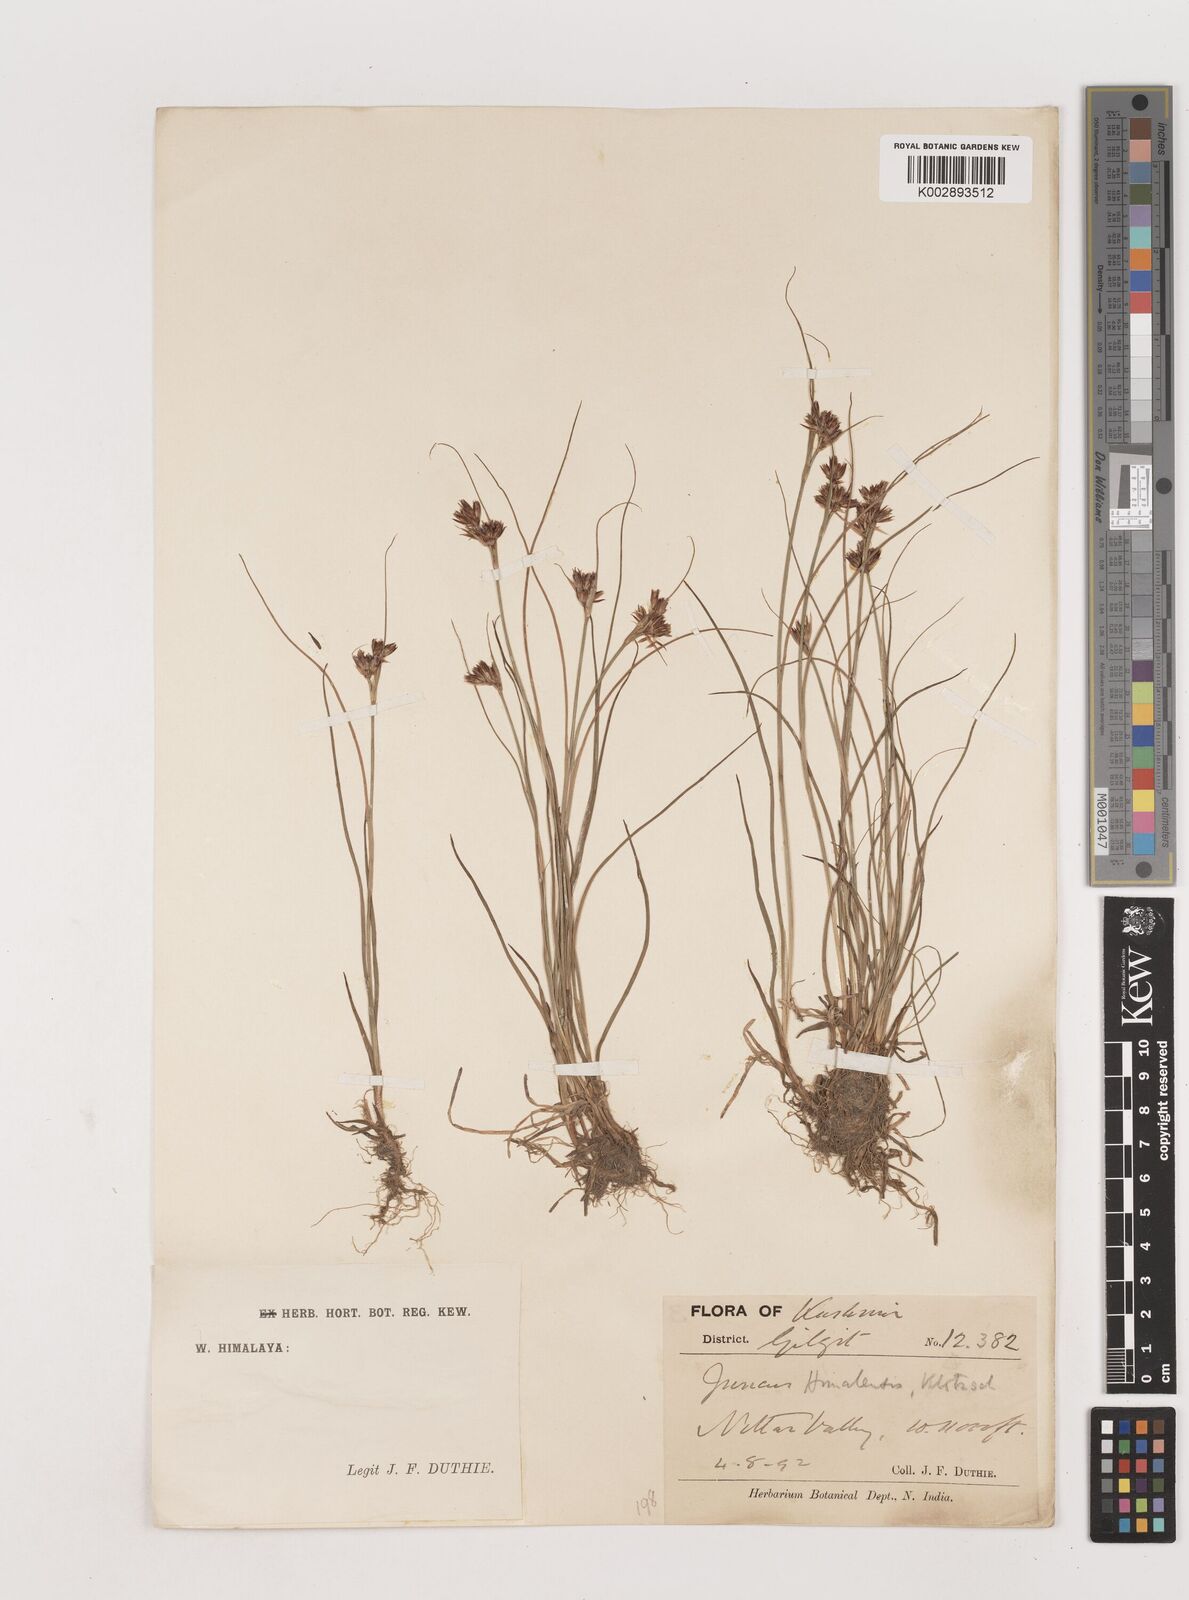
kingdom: Plantae
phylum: Tracheophyta
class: Liliopsida
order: Poales
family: Juncaceae
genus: Juncus
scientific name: Juncus himalensis
